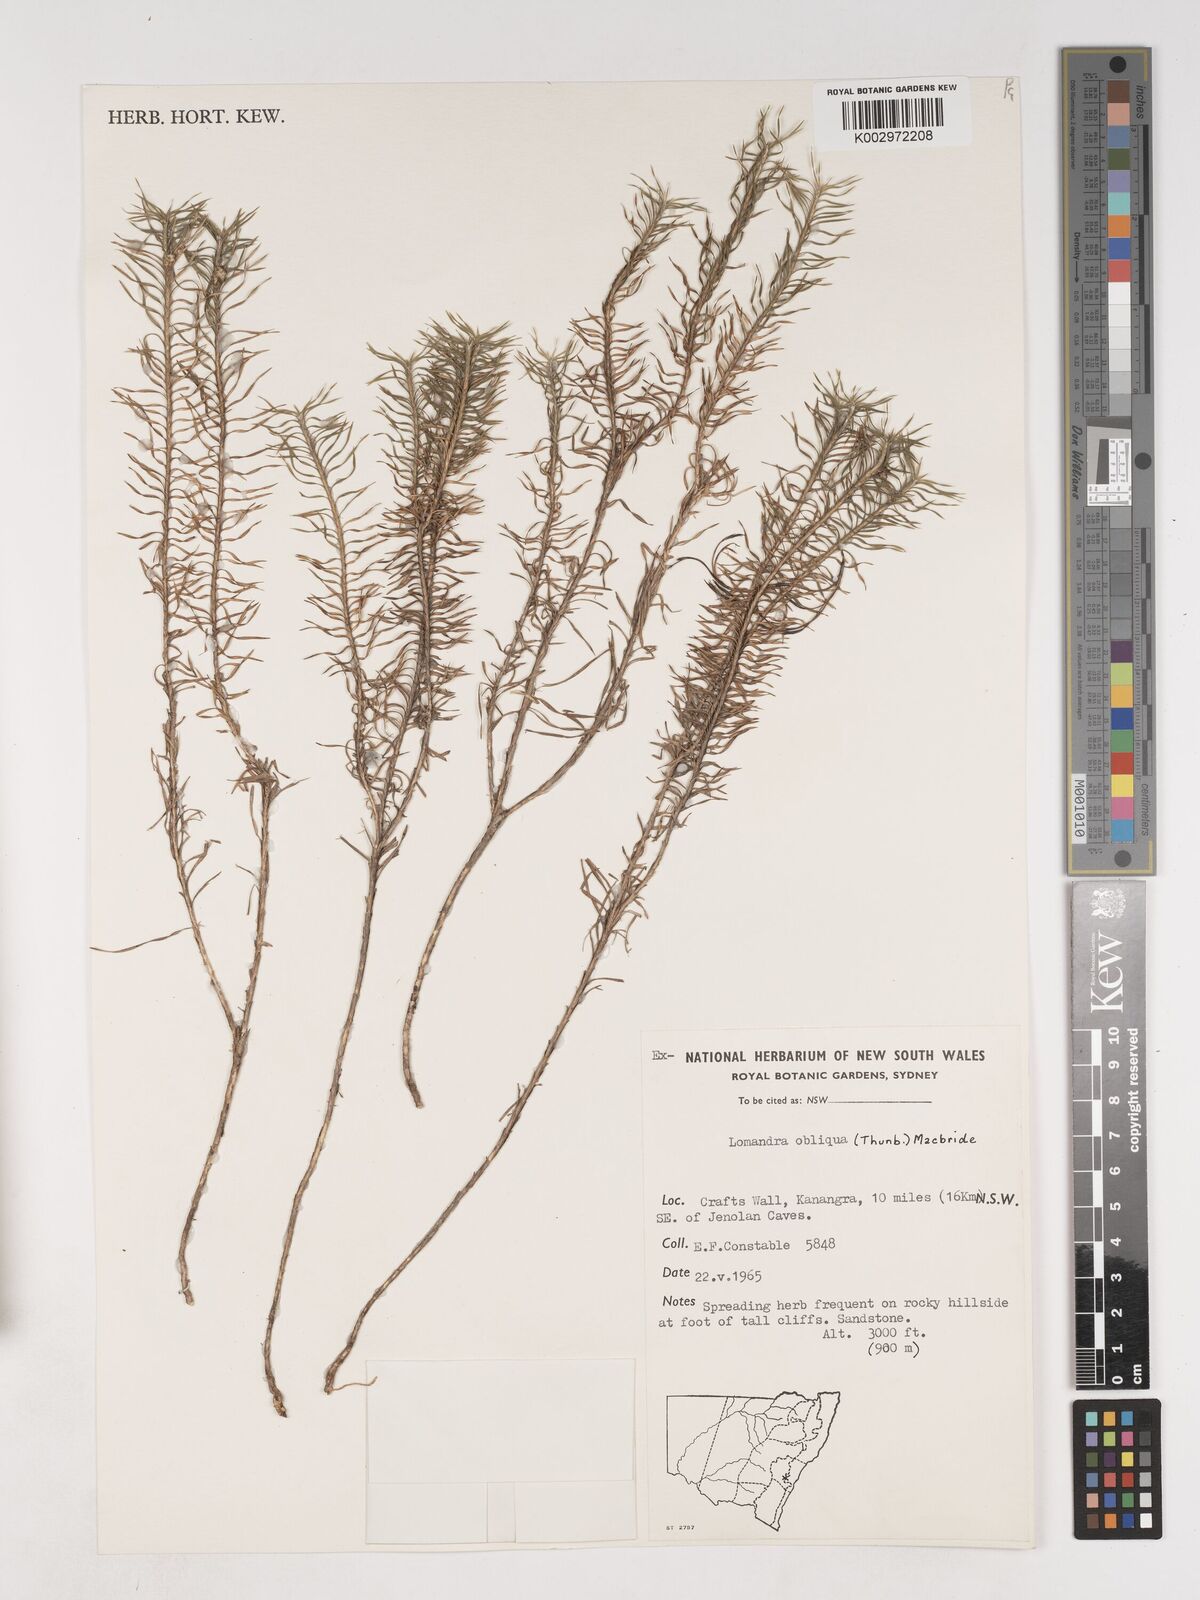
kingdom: Plantae
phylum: Tracheophyta
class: Liliopsida
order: Asparagales
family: Asparagaceae
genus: Lomandra
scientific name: Lomandra obliqua
